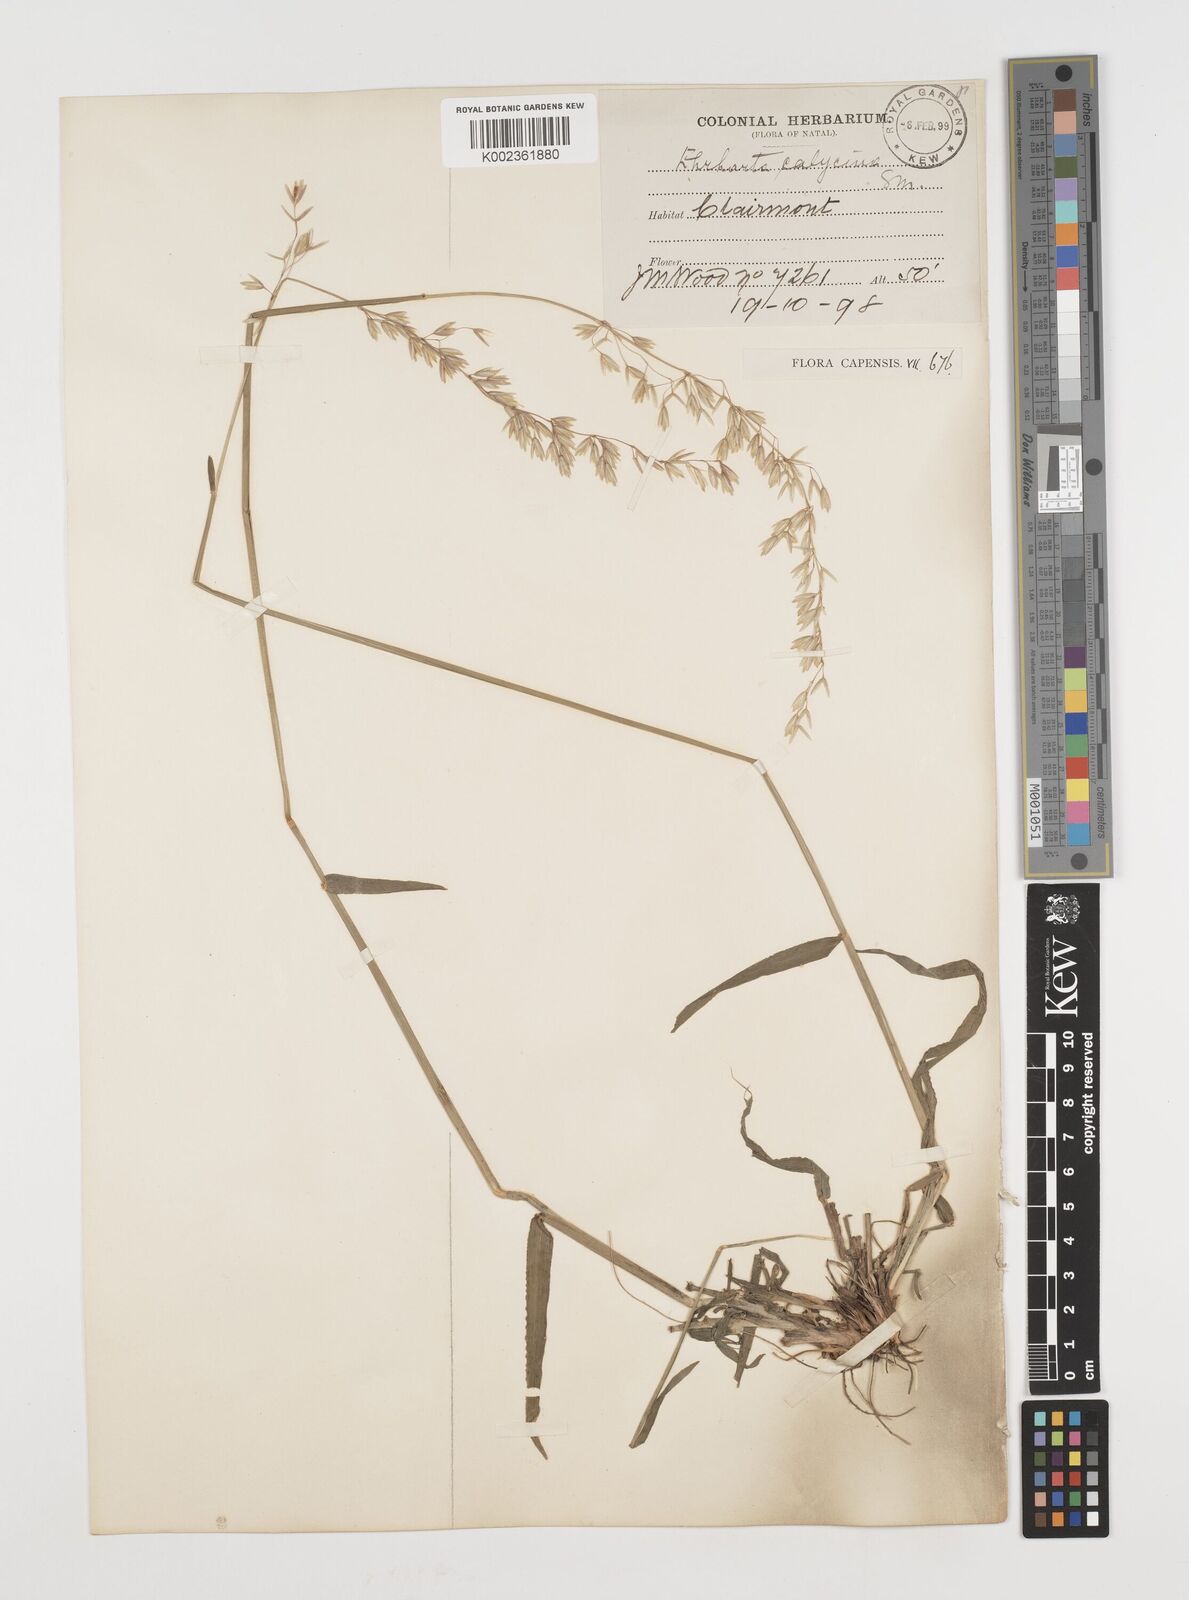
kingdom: Plantae
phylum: Tracheophyta
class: Liliopsida
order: Poales
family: Poaceae
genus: Ehrharta
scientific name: Ehrharta
